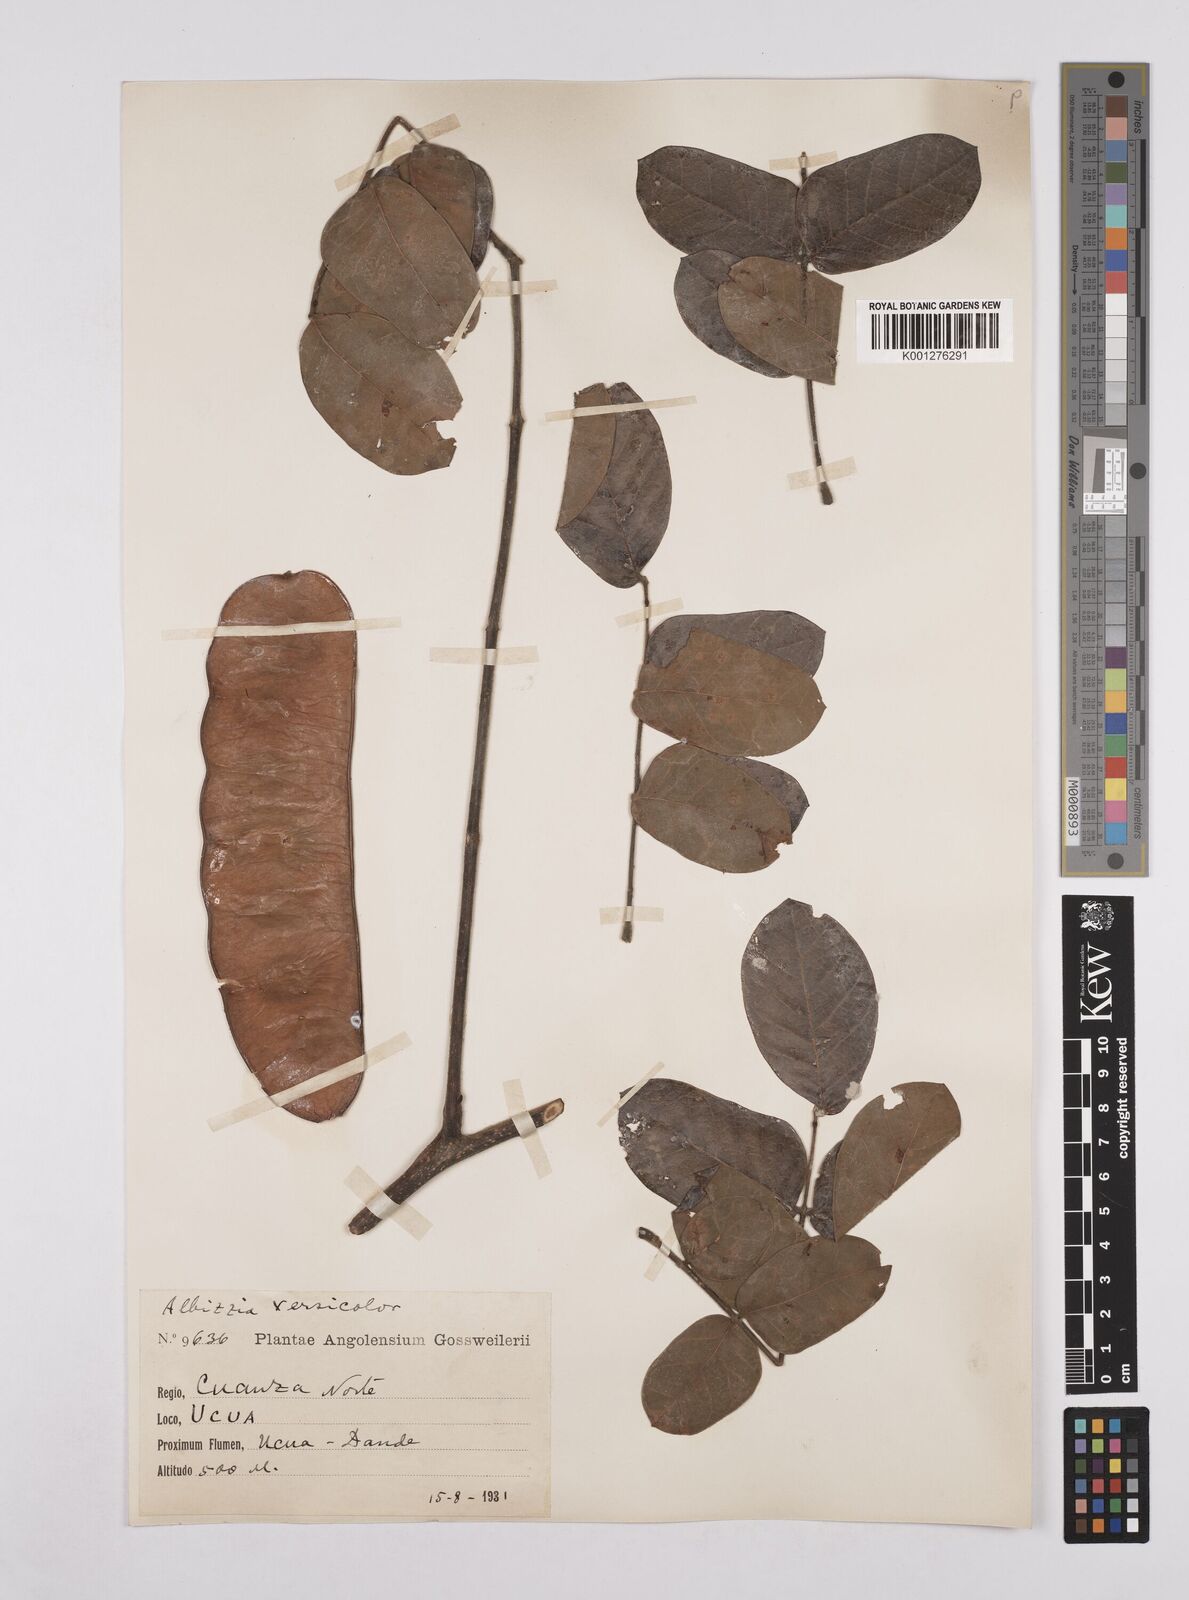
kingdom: Plantae
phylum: Tracheophyta
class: Magnoliopsida
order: Fabales
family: Fabaceae
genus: Albizia
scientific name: Albizia versicolor
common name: Poisonpod
